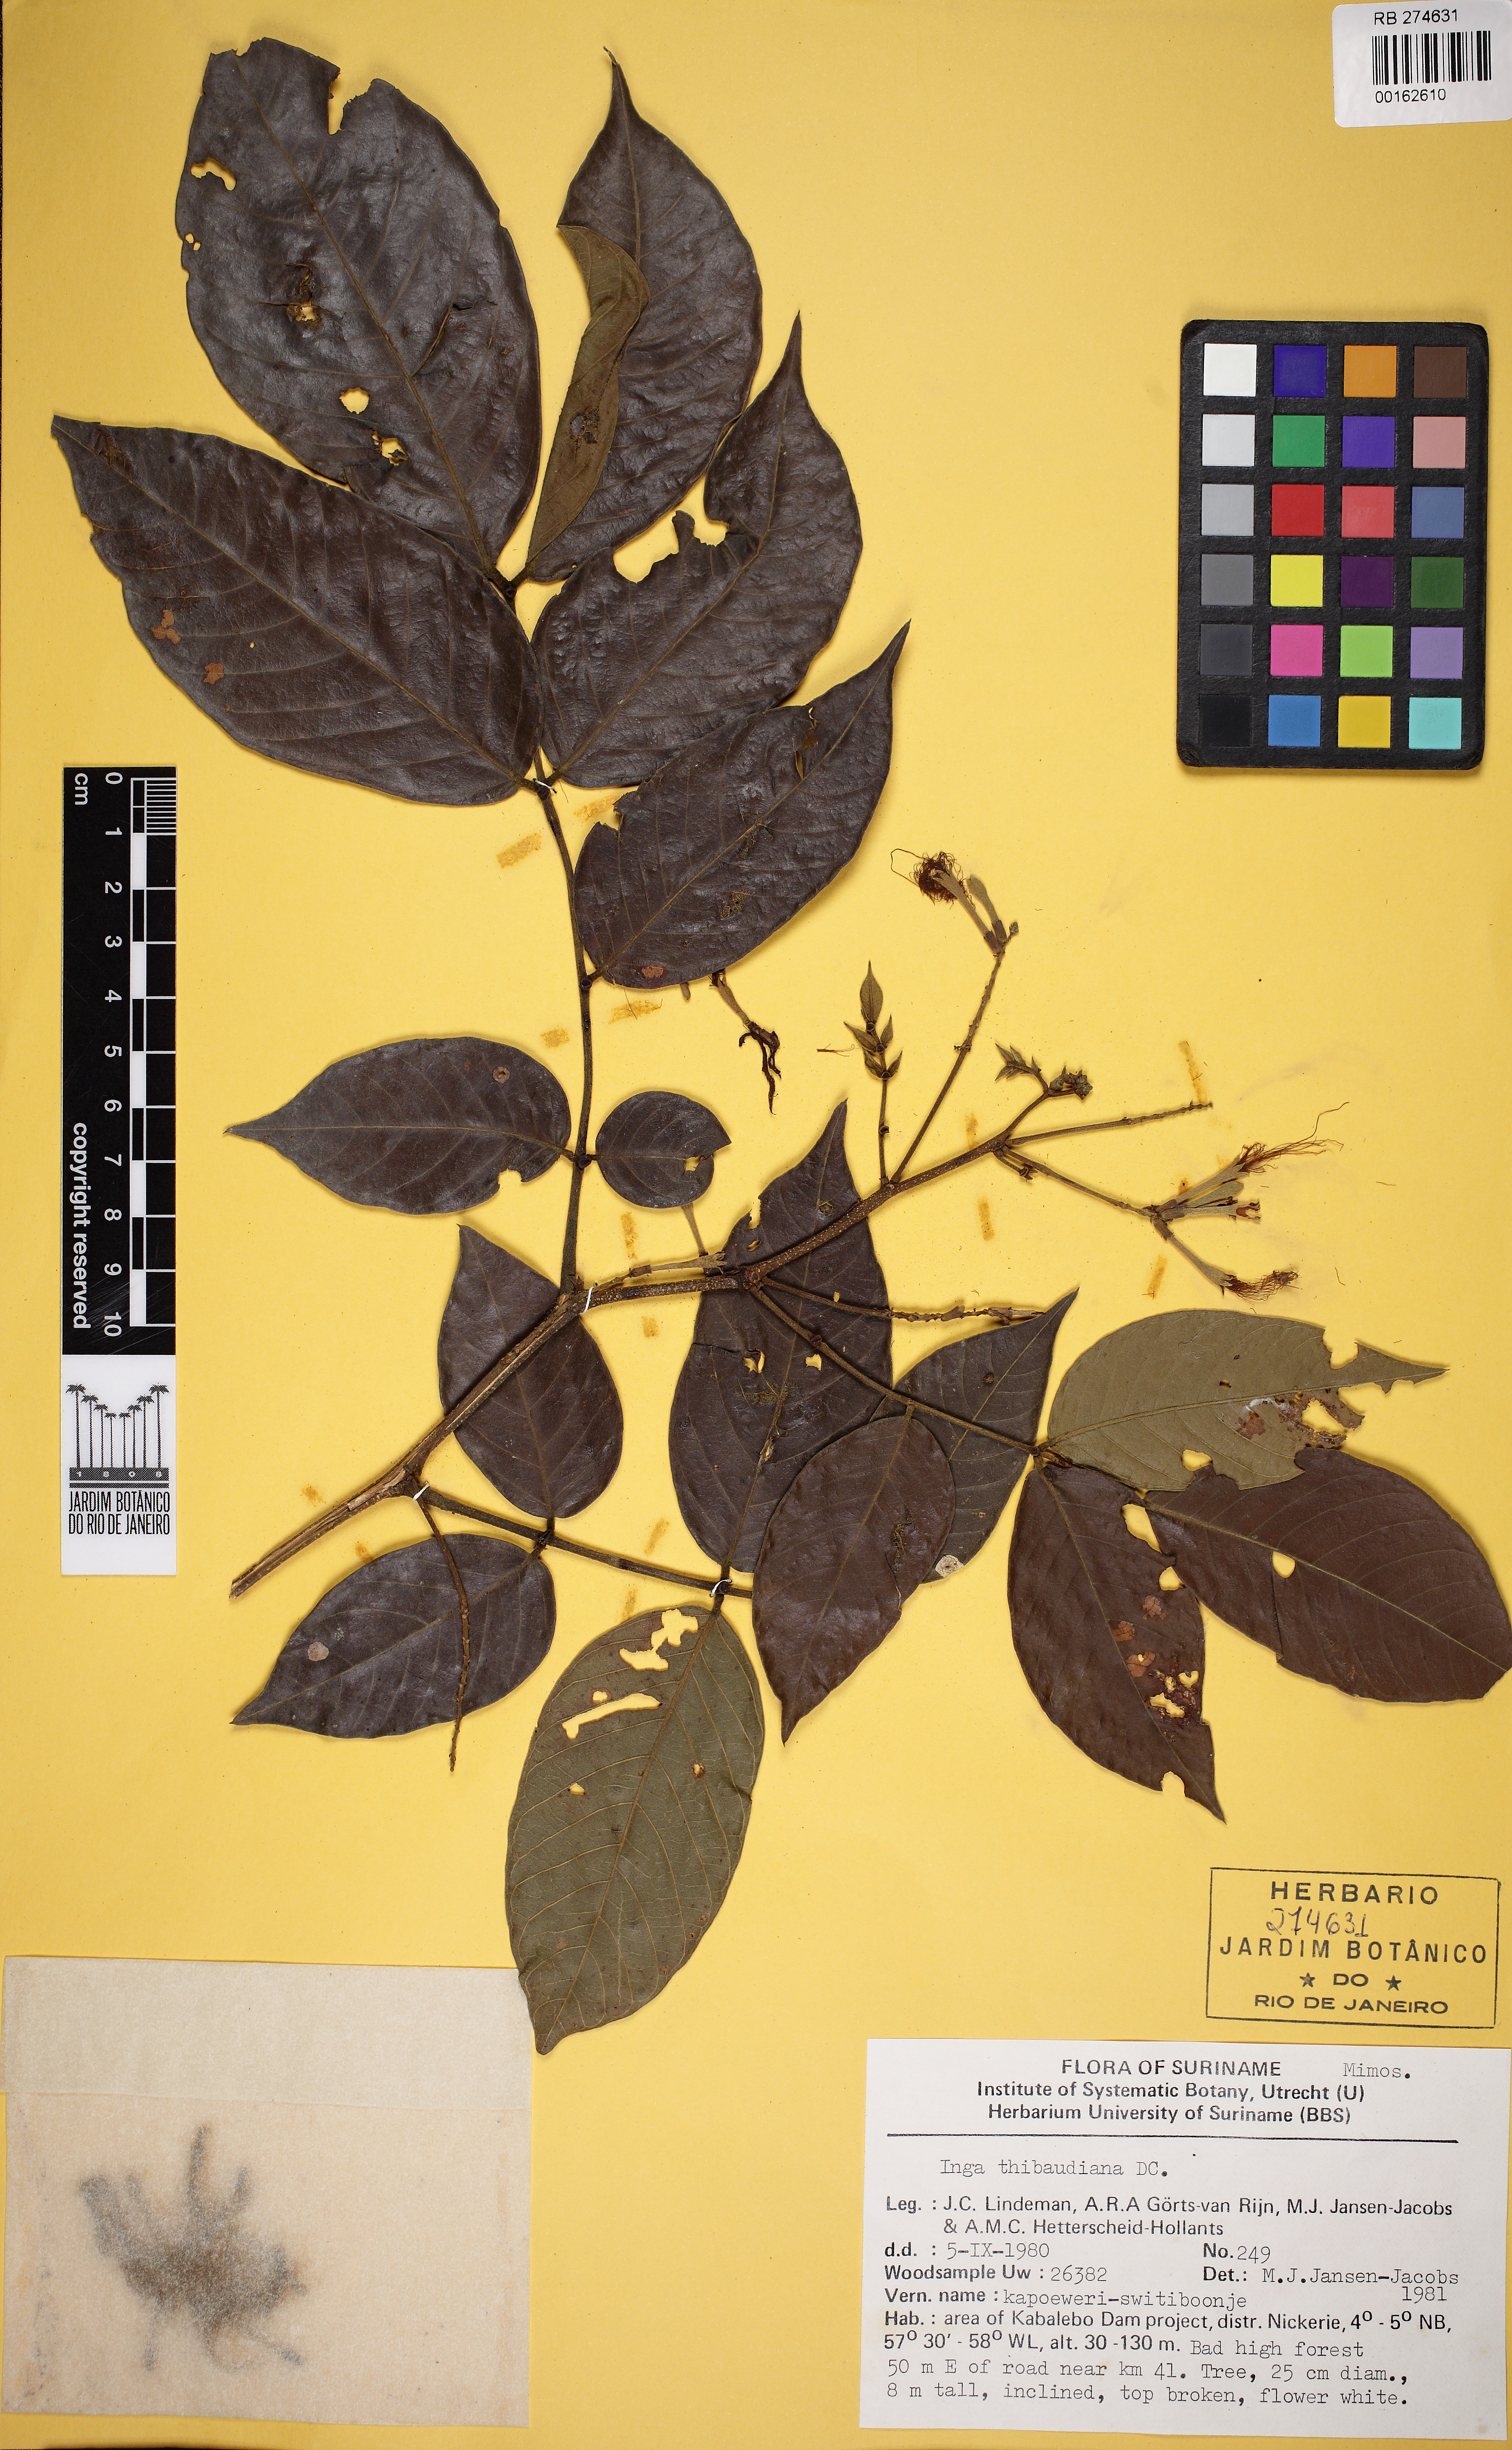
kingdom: Plantae
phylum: Tracheophyta
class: Magnoliopsida
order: Fabales
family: Fabaceae
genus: Inga
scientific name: Inga thibaudiana
